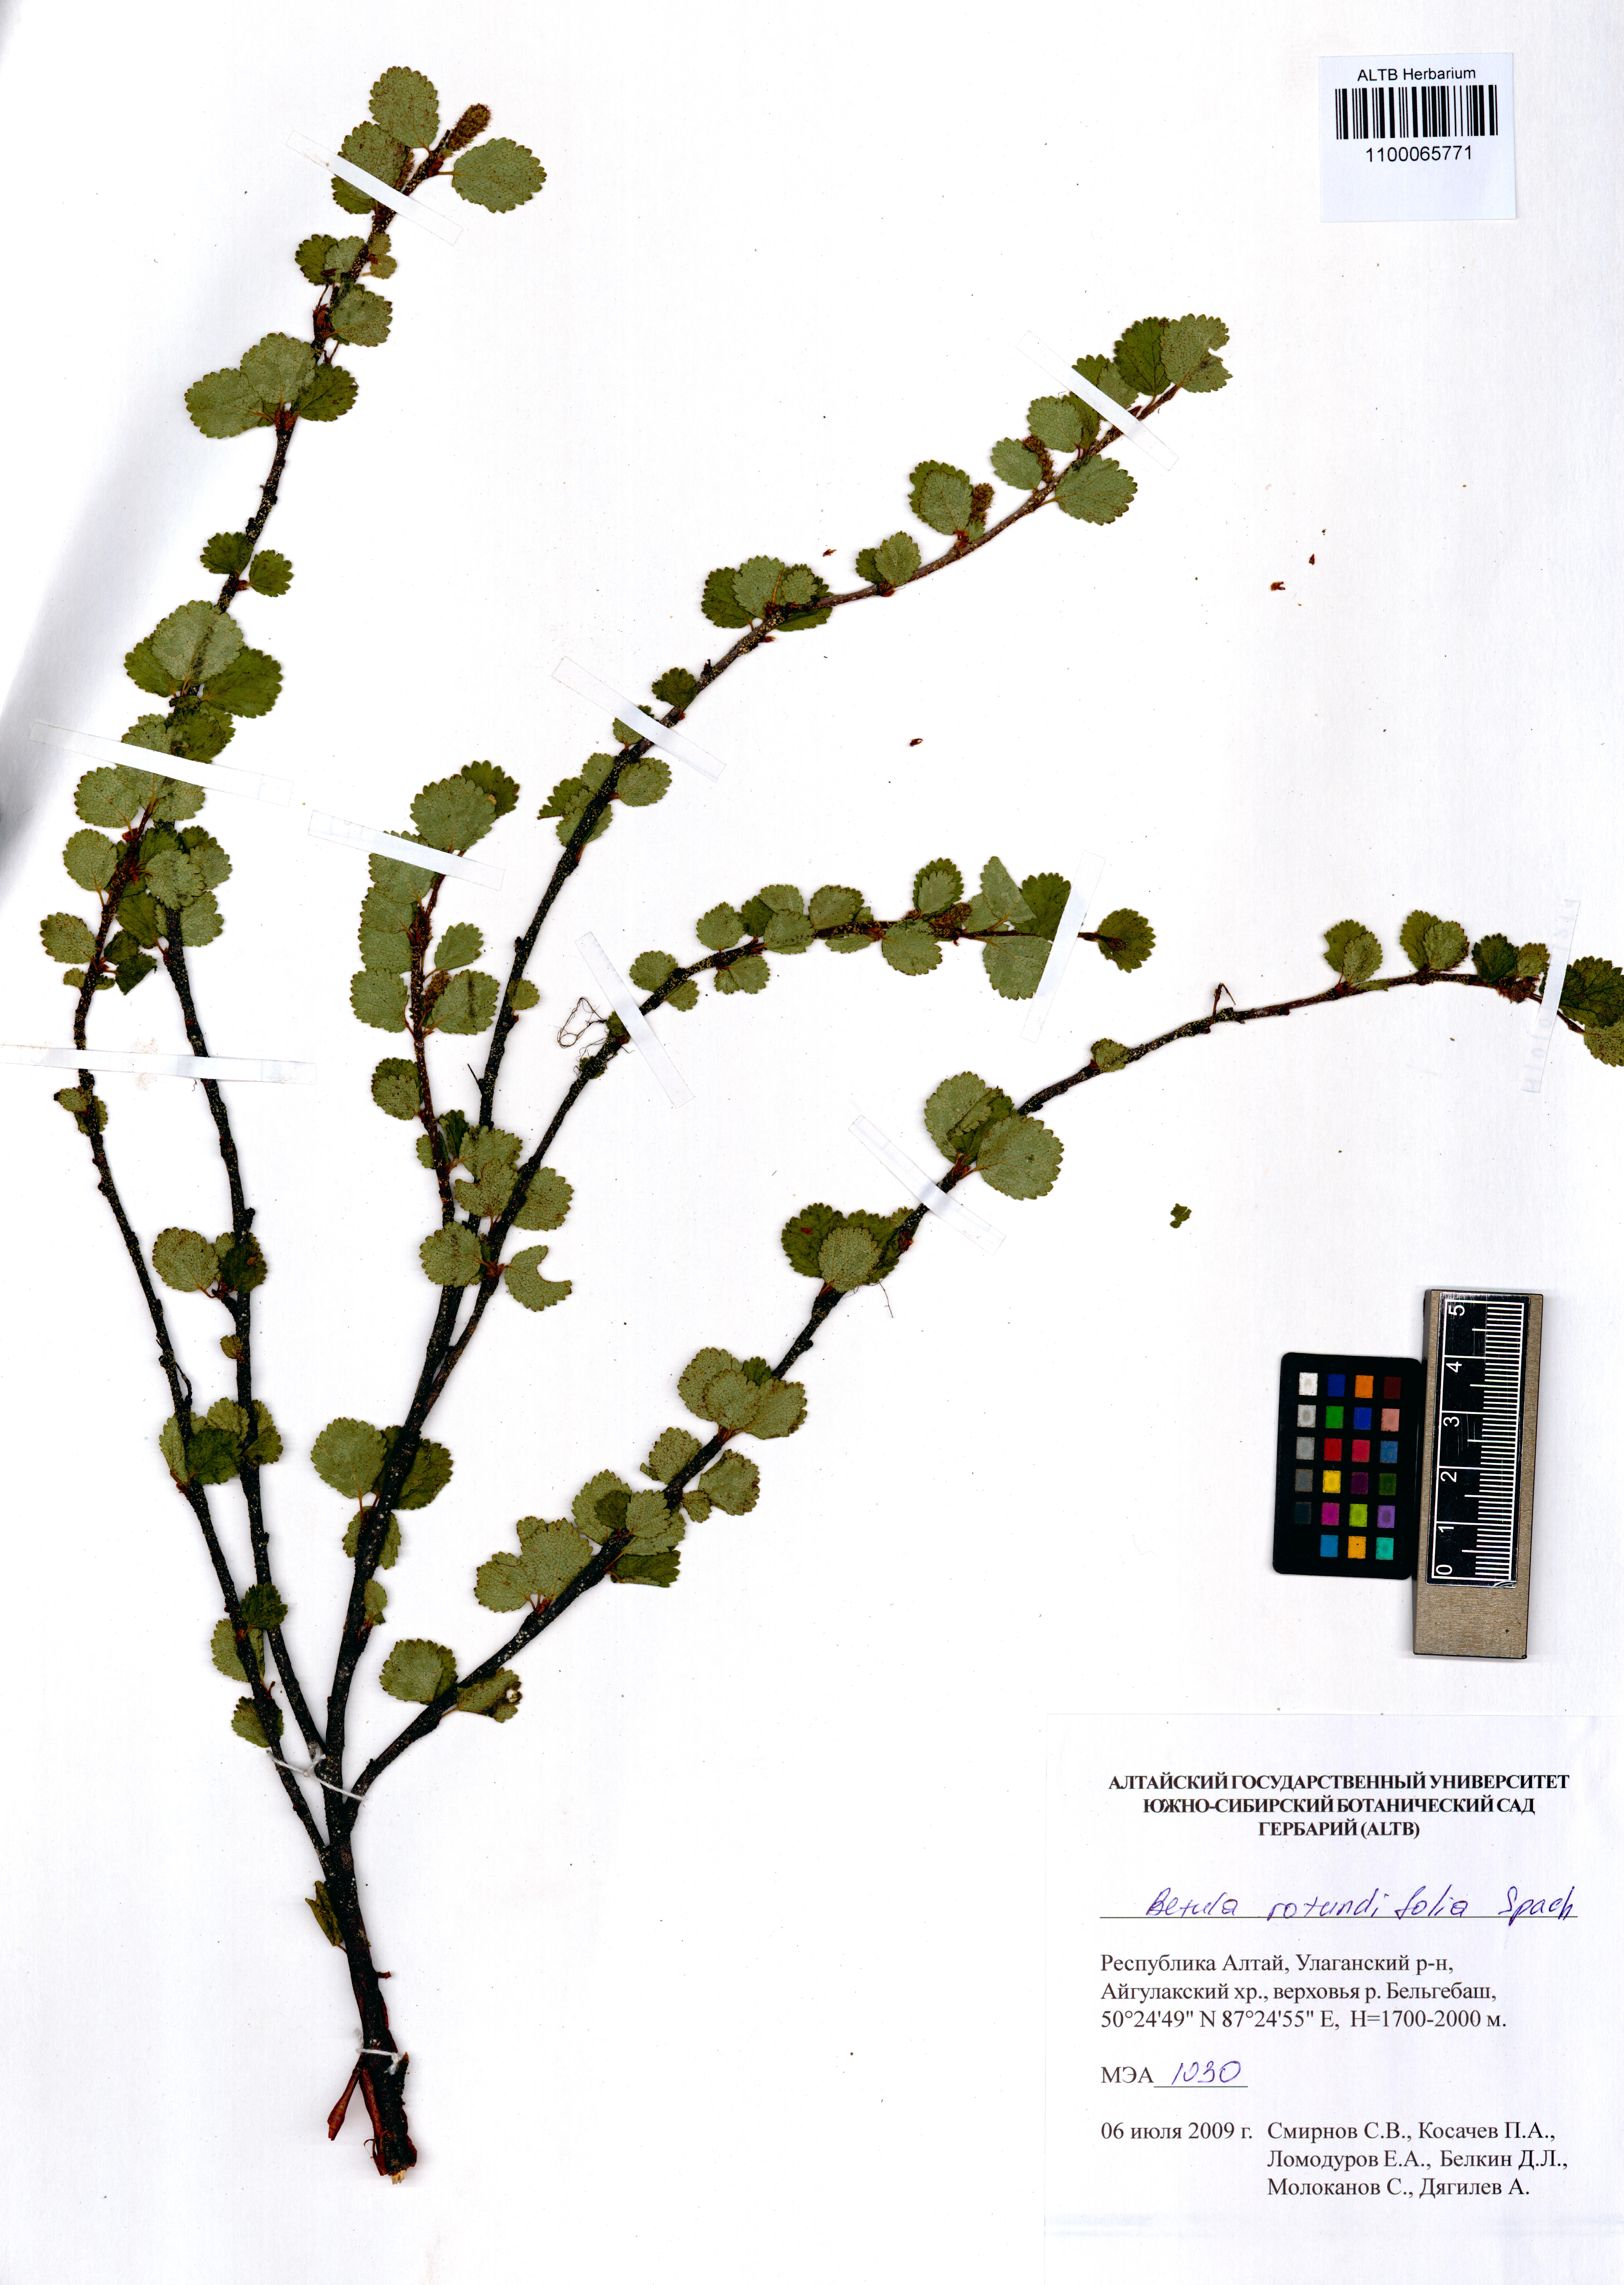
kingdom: Plantae
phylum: Tracheophyta
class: Magnoliopsida
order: Fagales
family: Betulaceae
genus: Betula
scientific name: Betula glandulosa
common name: Dwarf birch
